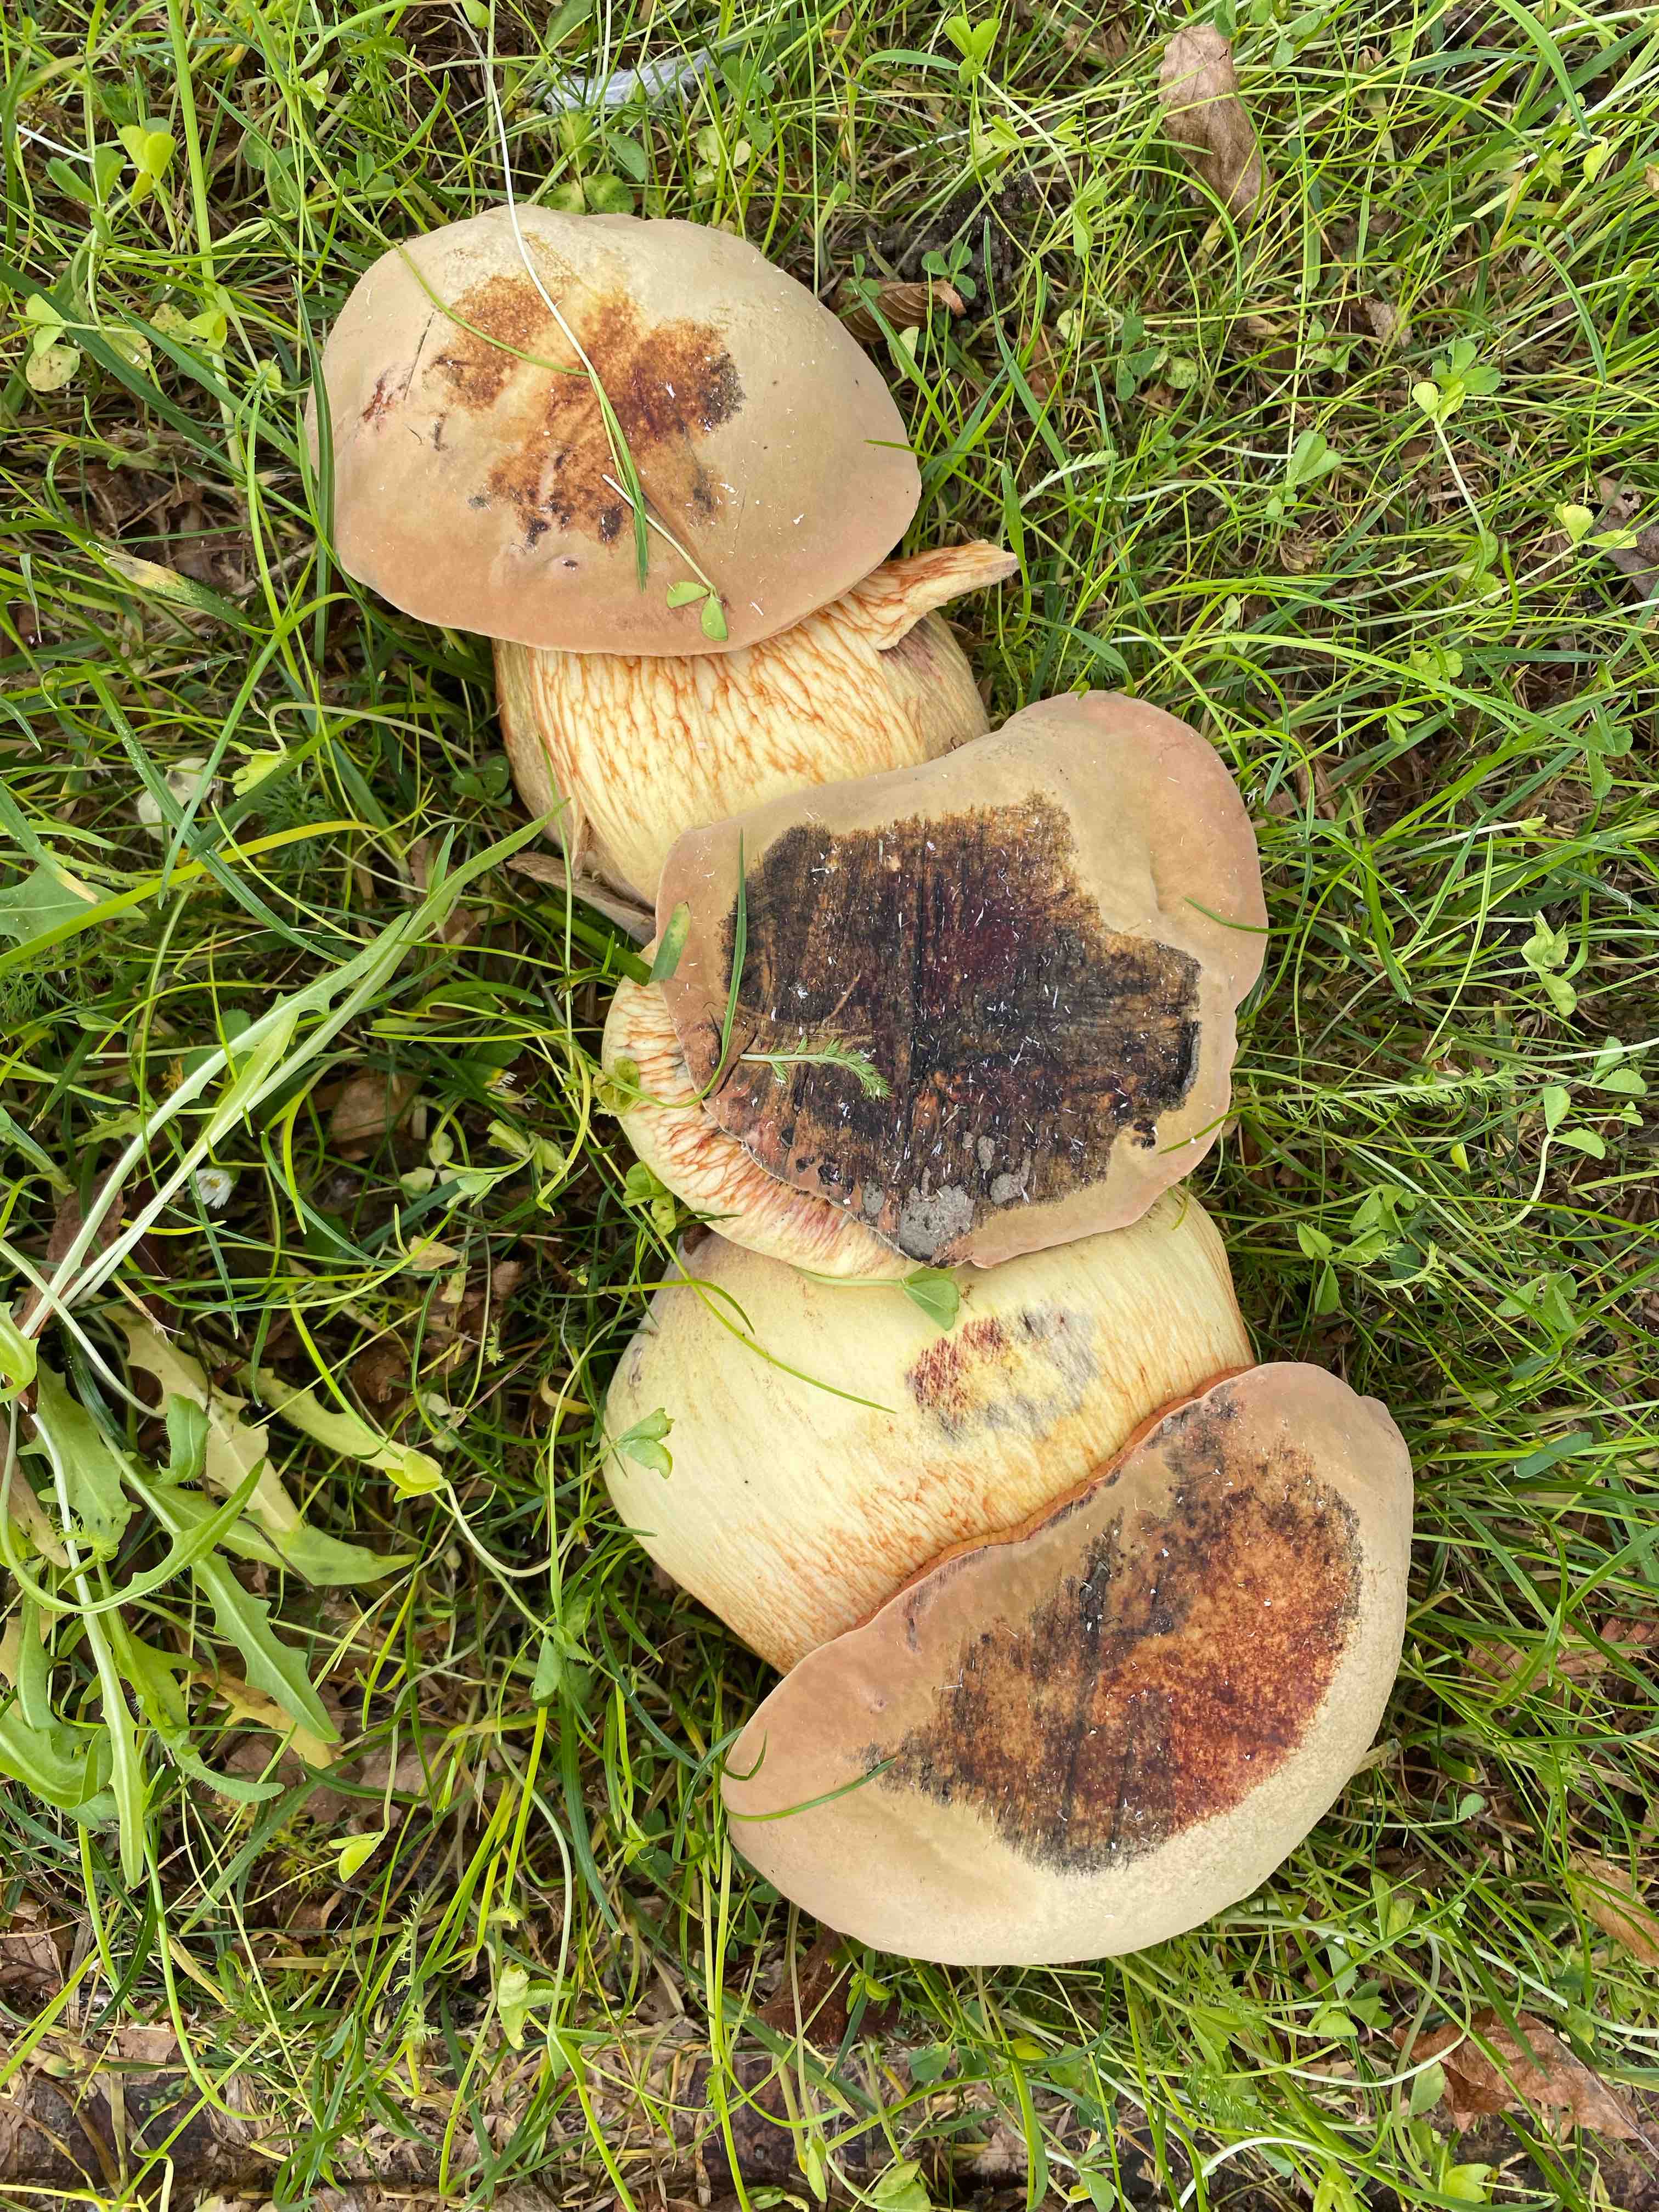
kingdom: Fungi
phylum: Basidiomycota
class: Agaricomycetes
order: Boletales
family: Boletaceae
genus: Suillellus
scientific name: Suillellus luridus
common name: netstokket indigorørhat
